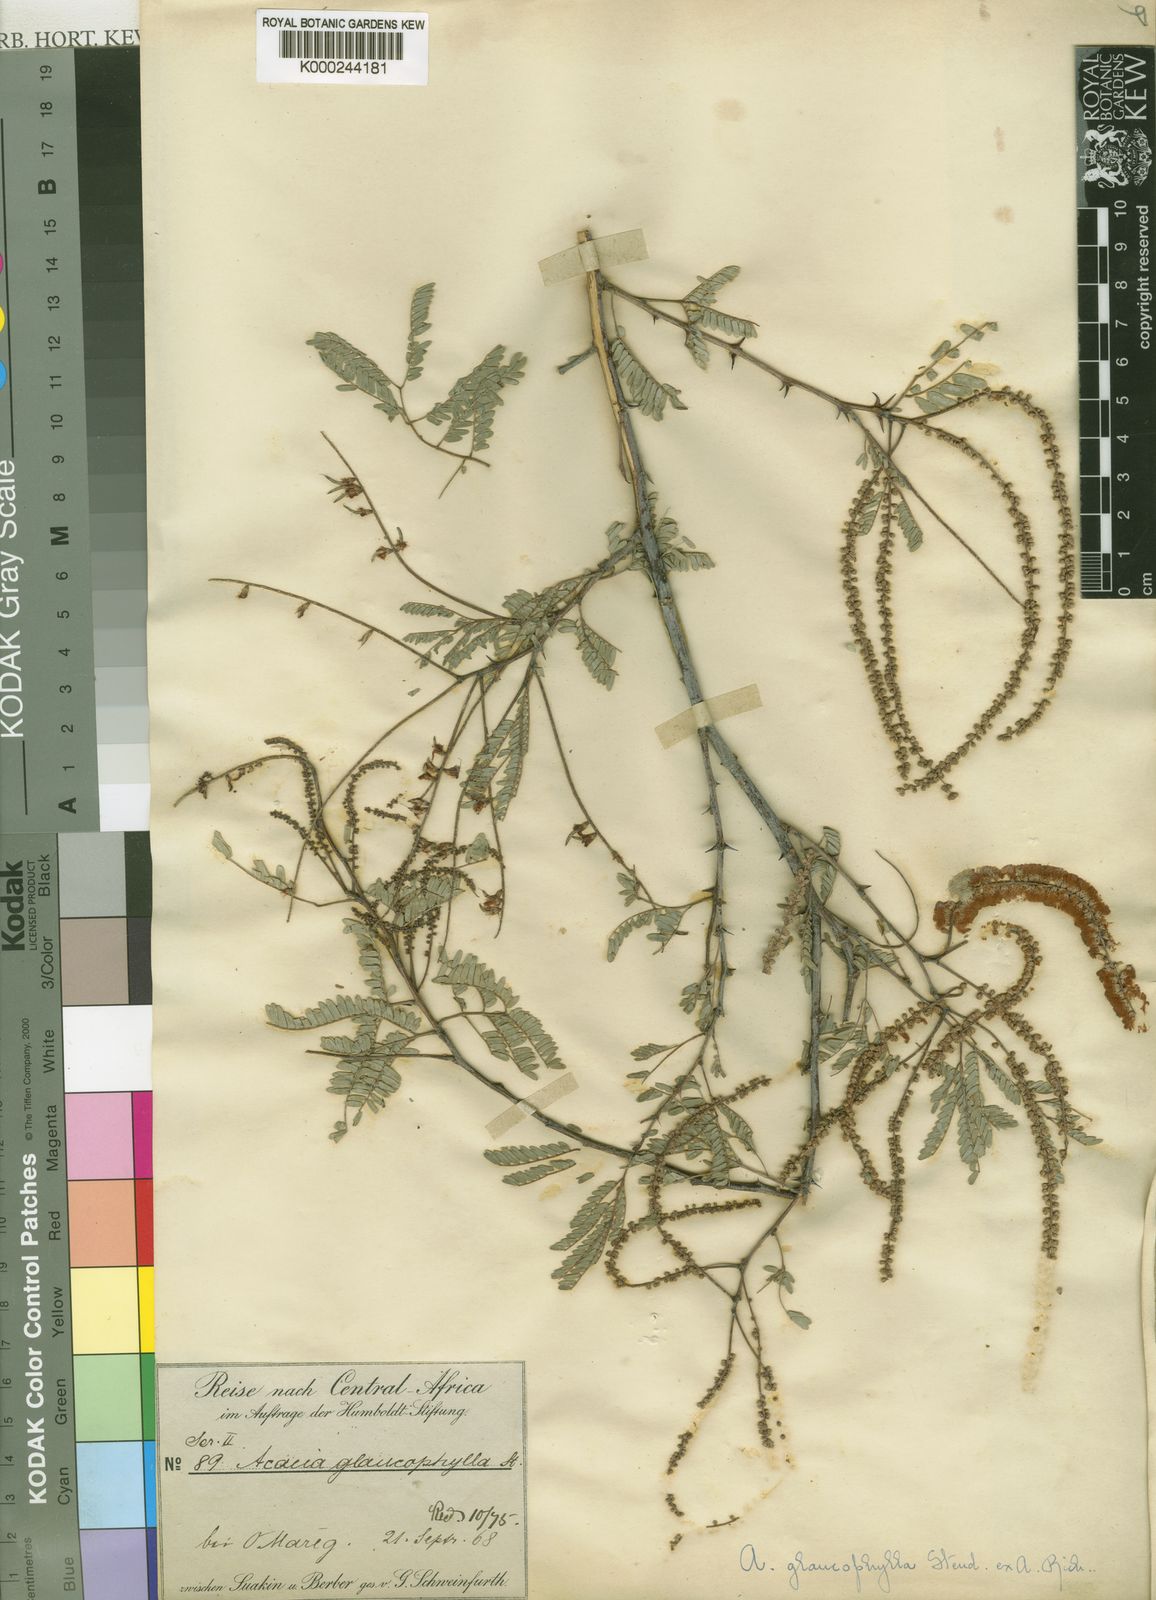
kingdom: Plantae
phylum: Tracheophyta
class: Magnoliopsida
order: Fabales
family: Fabaceae
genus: Senegalia
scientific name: Senegalia asak
